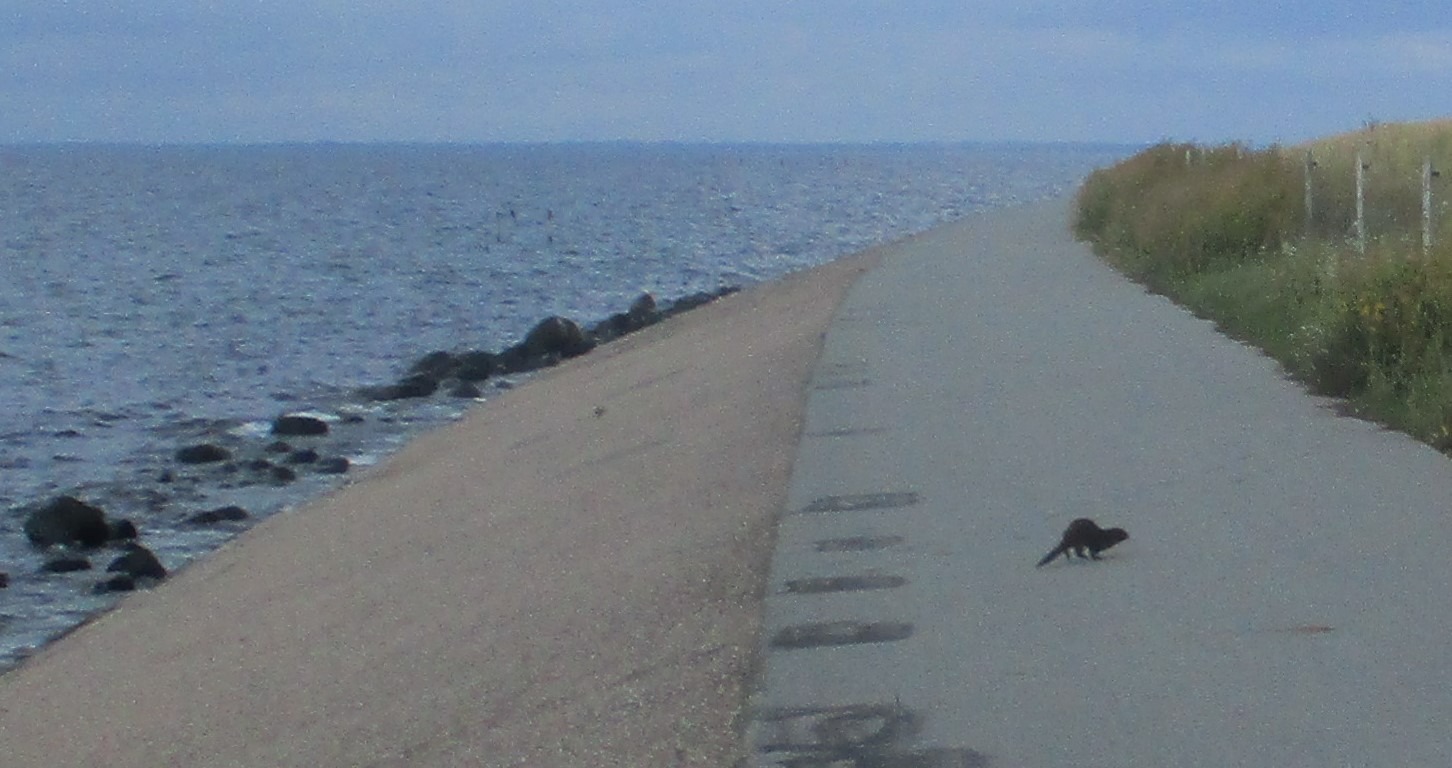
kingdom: Animalia
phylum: Chordata
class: Mammalia
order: Carnivora
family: Mustelidae
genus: Mustela
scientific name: Mustela vison
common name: Mink
